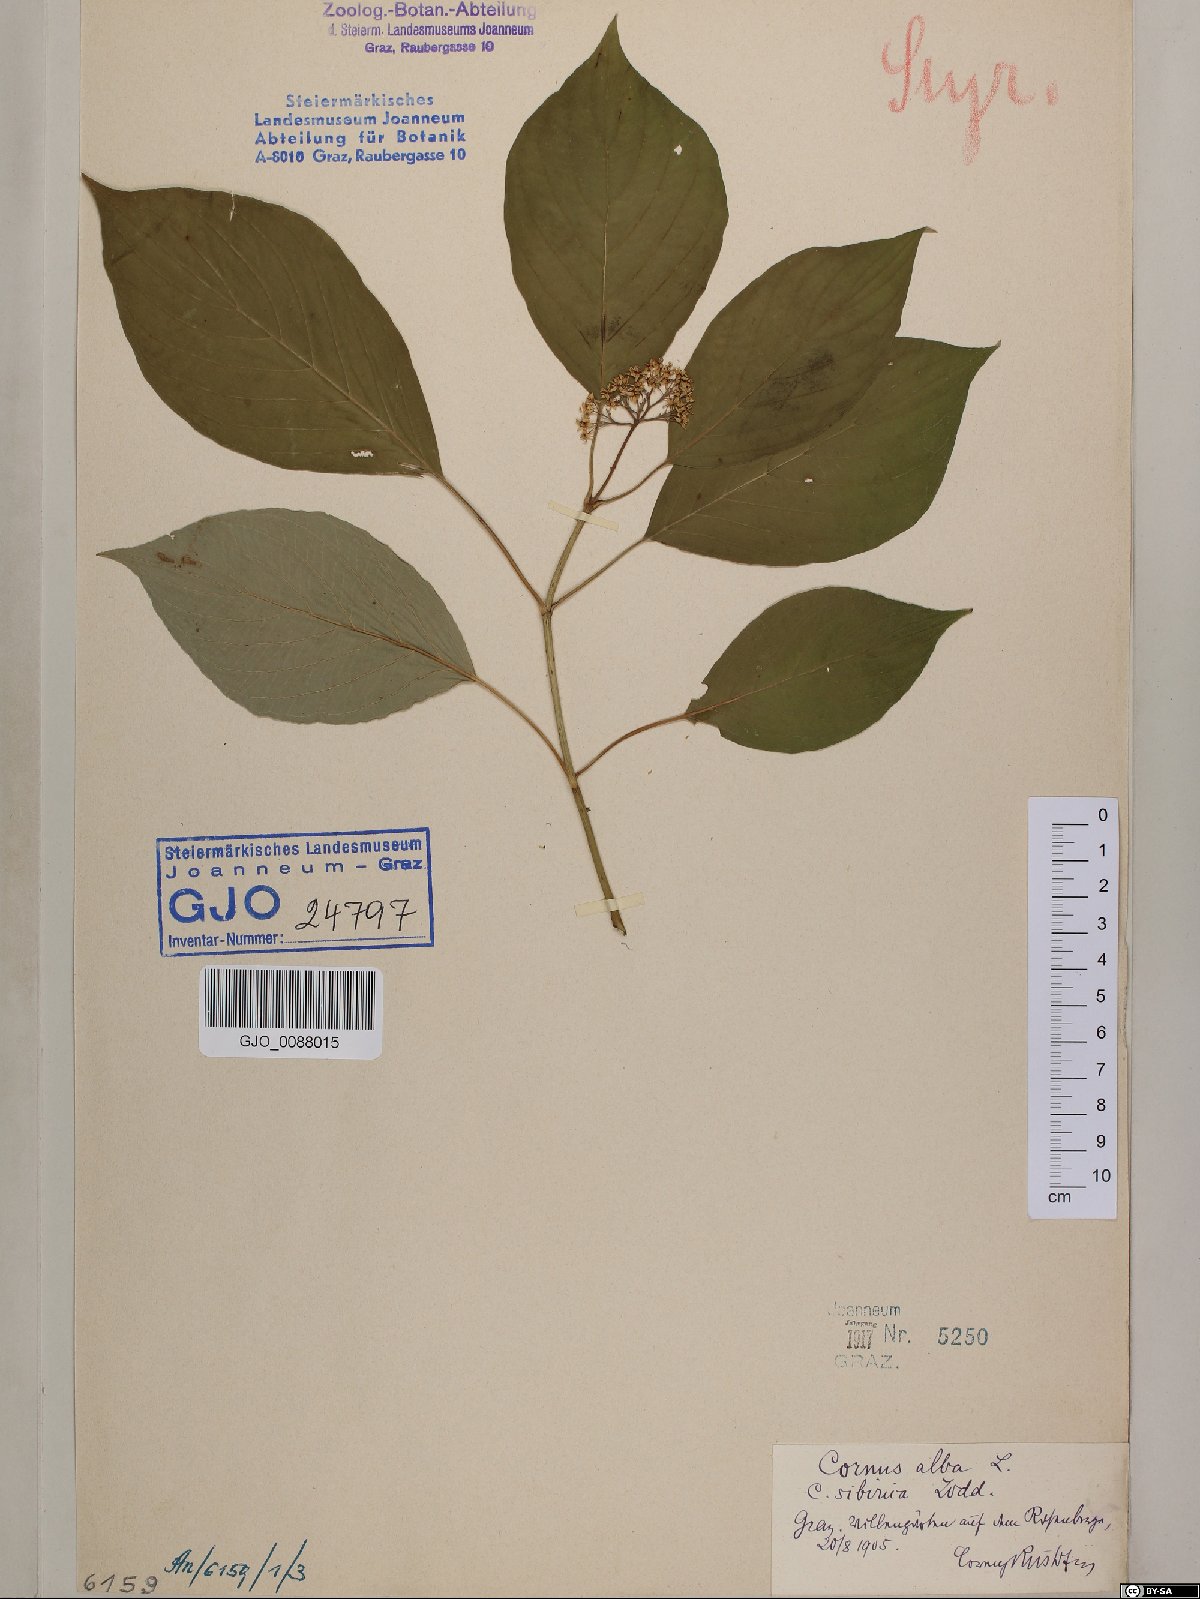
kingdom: Plantae
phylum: Tracheophyta
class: Magnoliopsida
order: Cornales
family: Cornaceae
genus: Cornus
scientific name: Cornus sericea
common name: Red-osier dogwood
